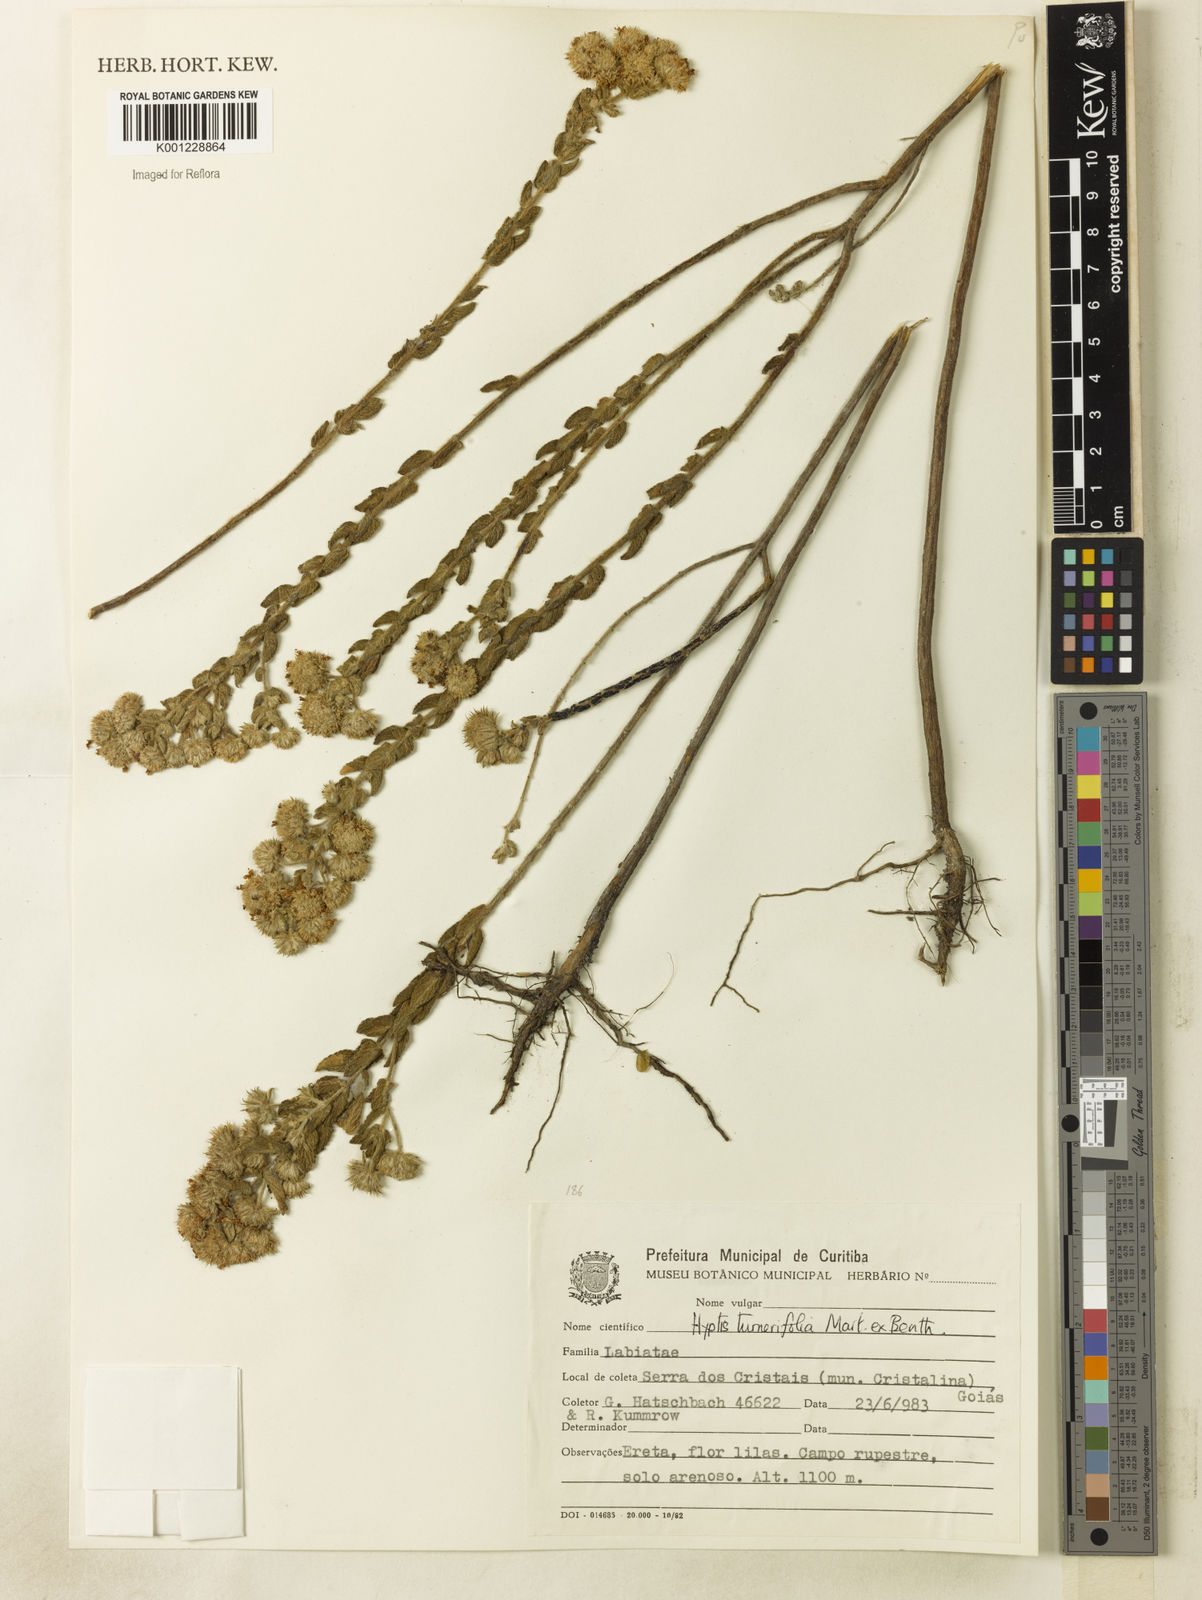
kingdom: Plantae
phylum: Tracheophyta
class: Magnoliopsida
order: Lamiales
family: Lamiaceae
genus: Hyptis
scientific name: Hyptis turnerifolia
